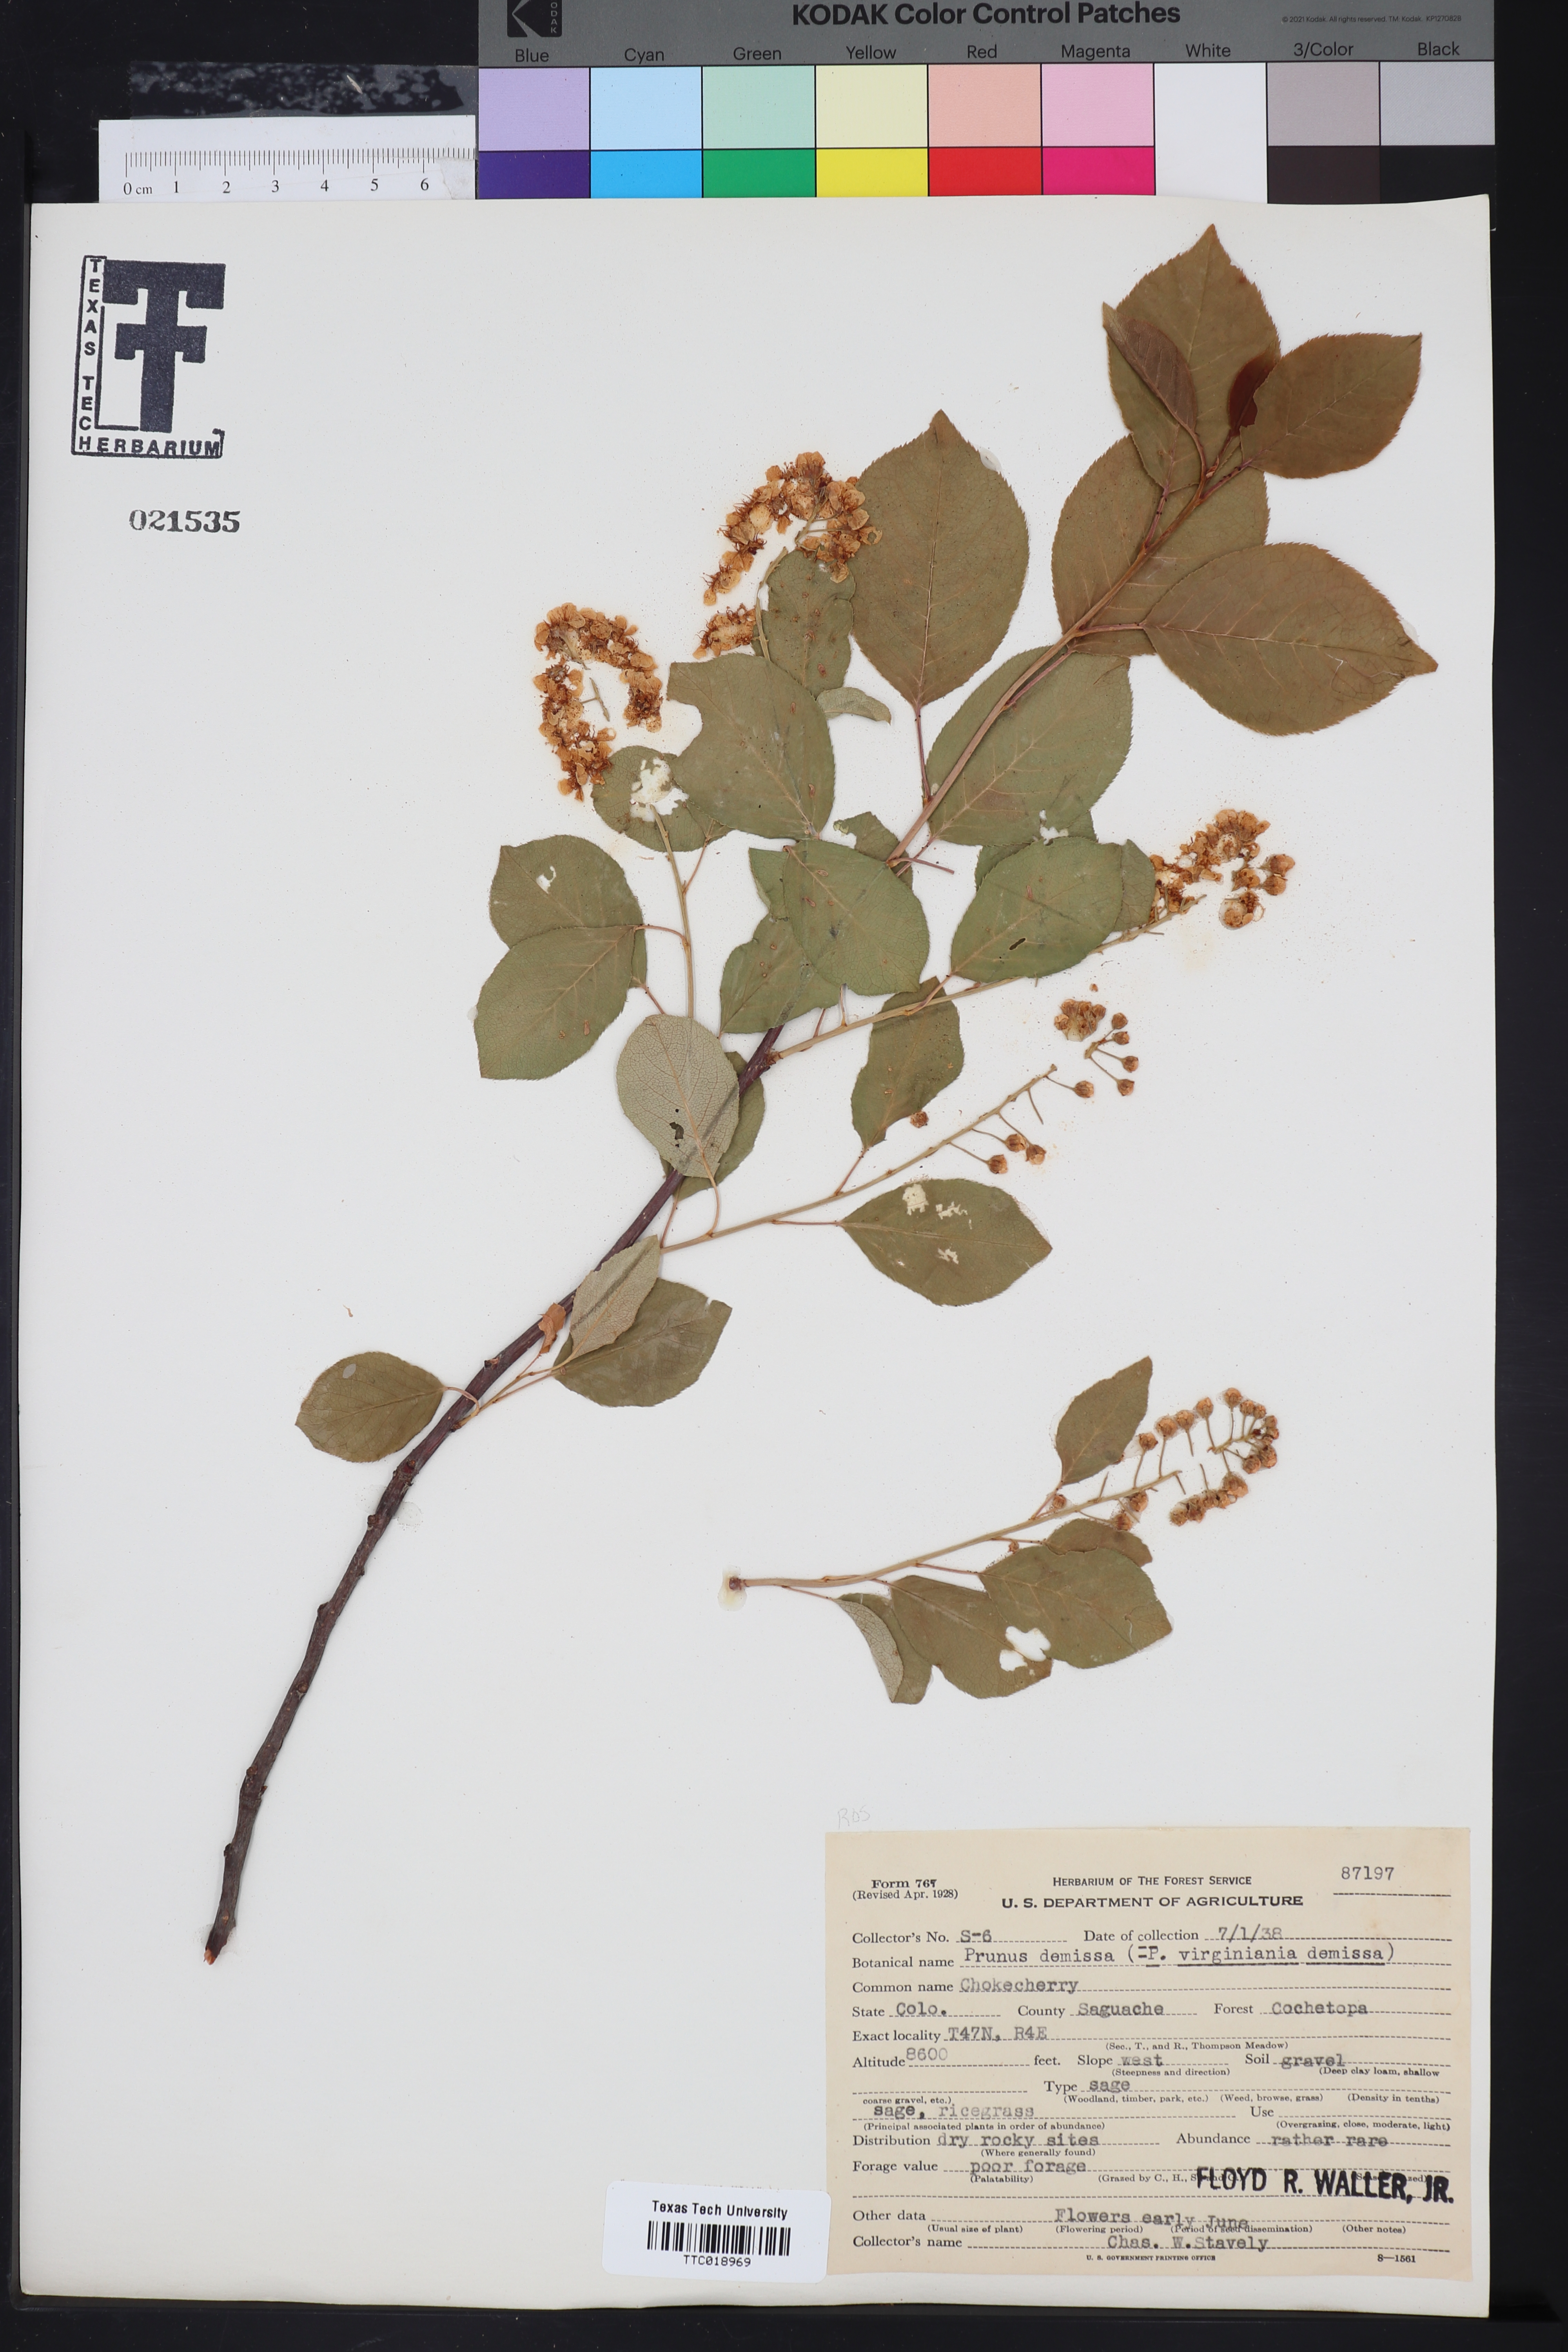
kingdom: Plantae
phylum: Tracheophyta
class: Magnoliopsida
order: Rosales
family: Rosaceae
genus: Prunus
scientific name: Prunus virginiana
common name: Chokecherry
